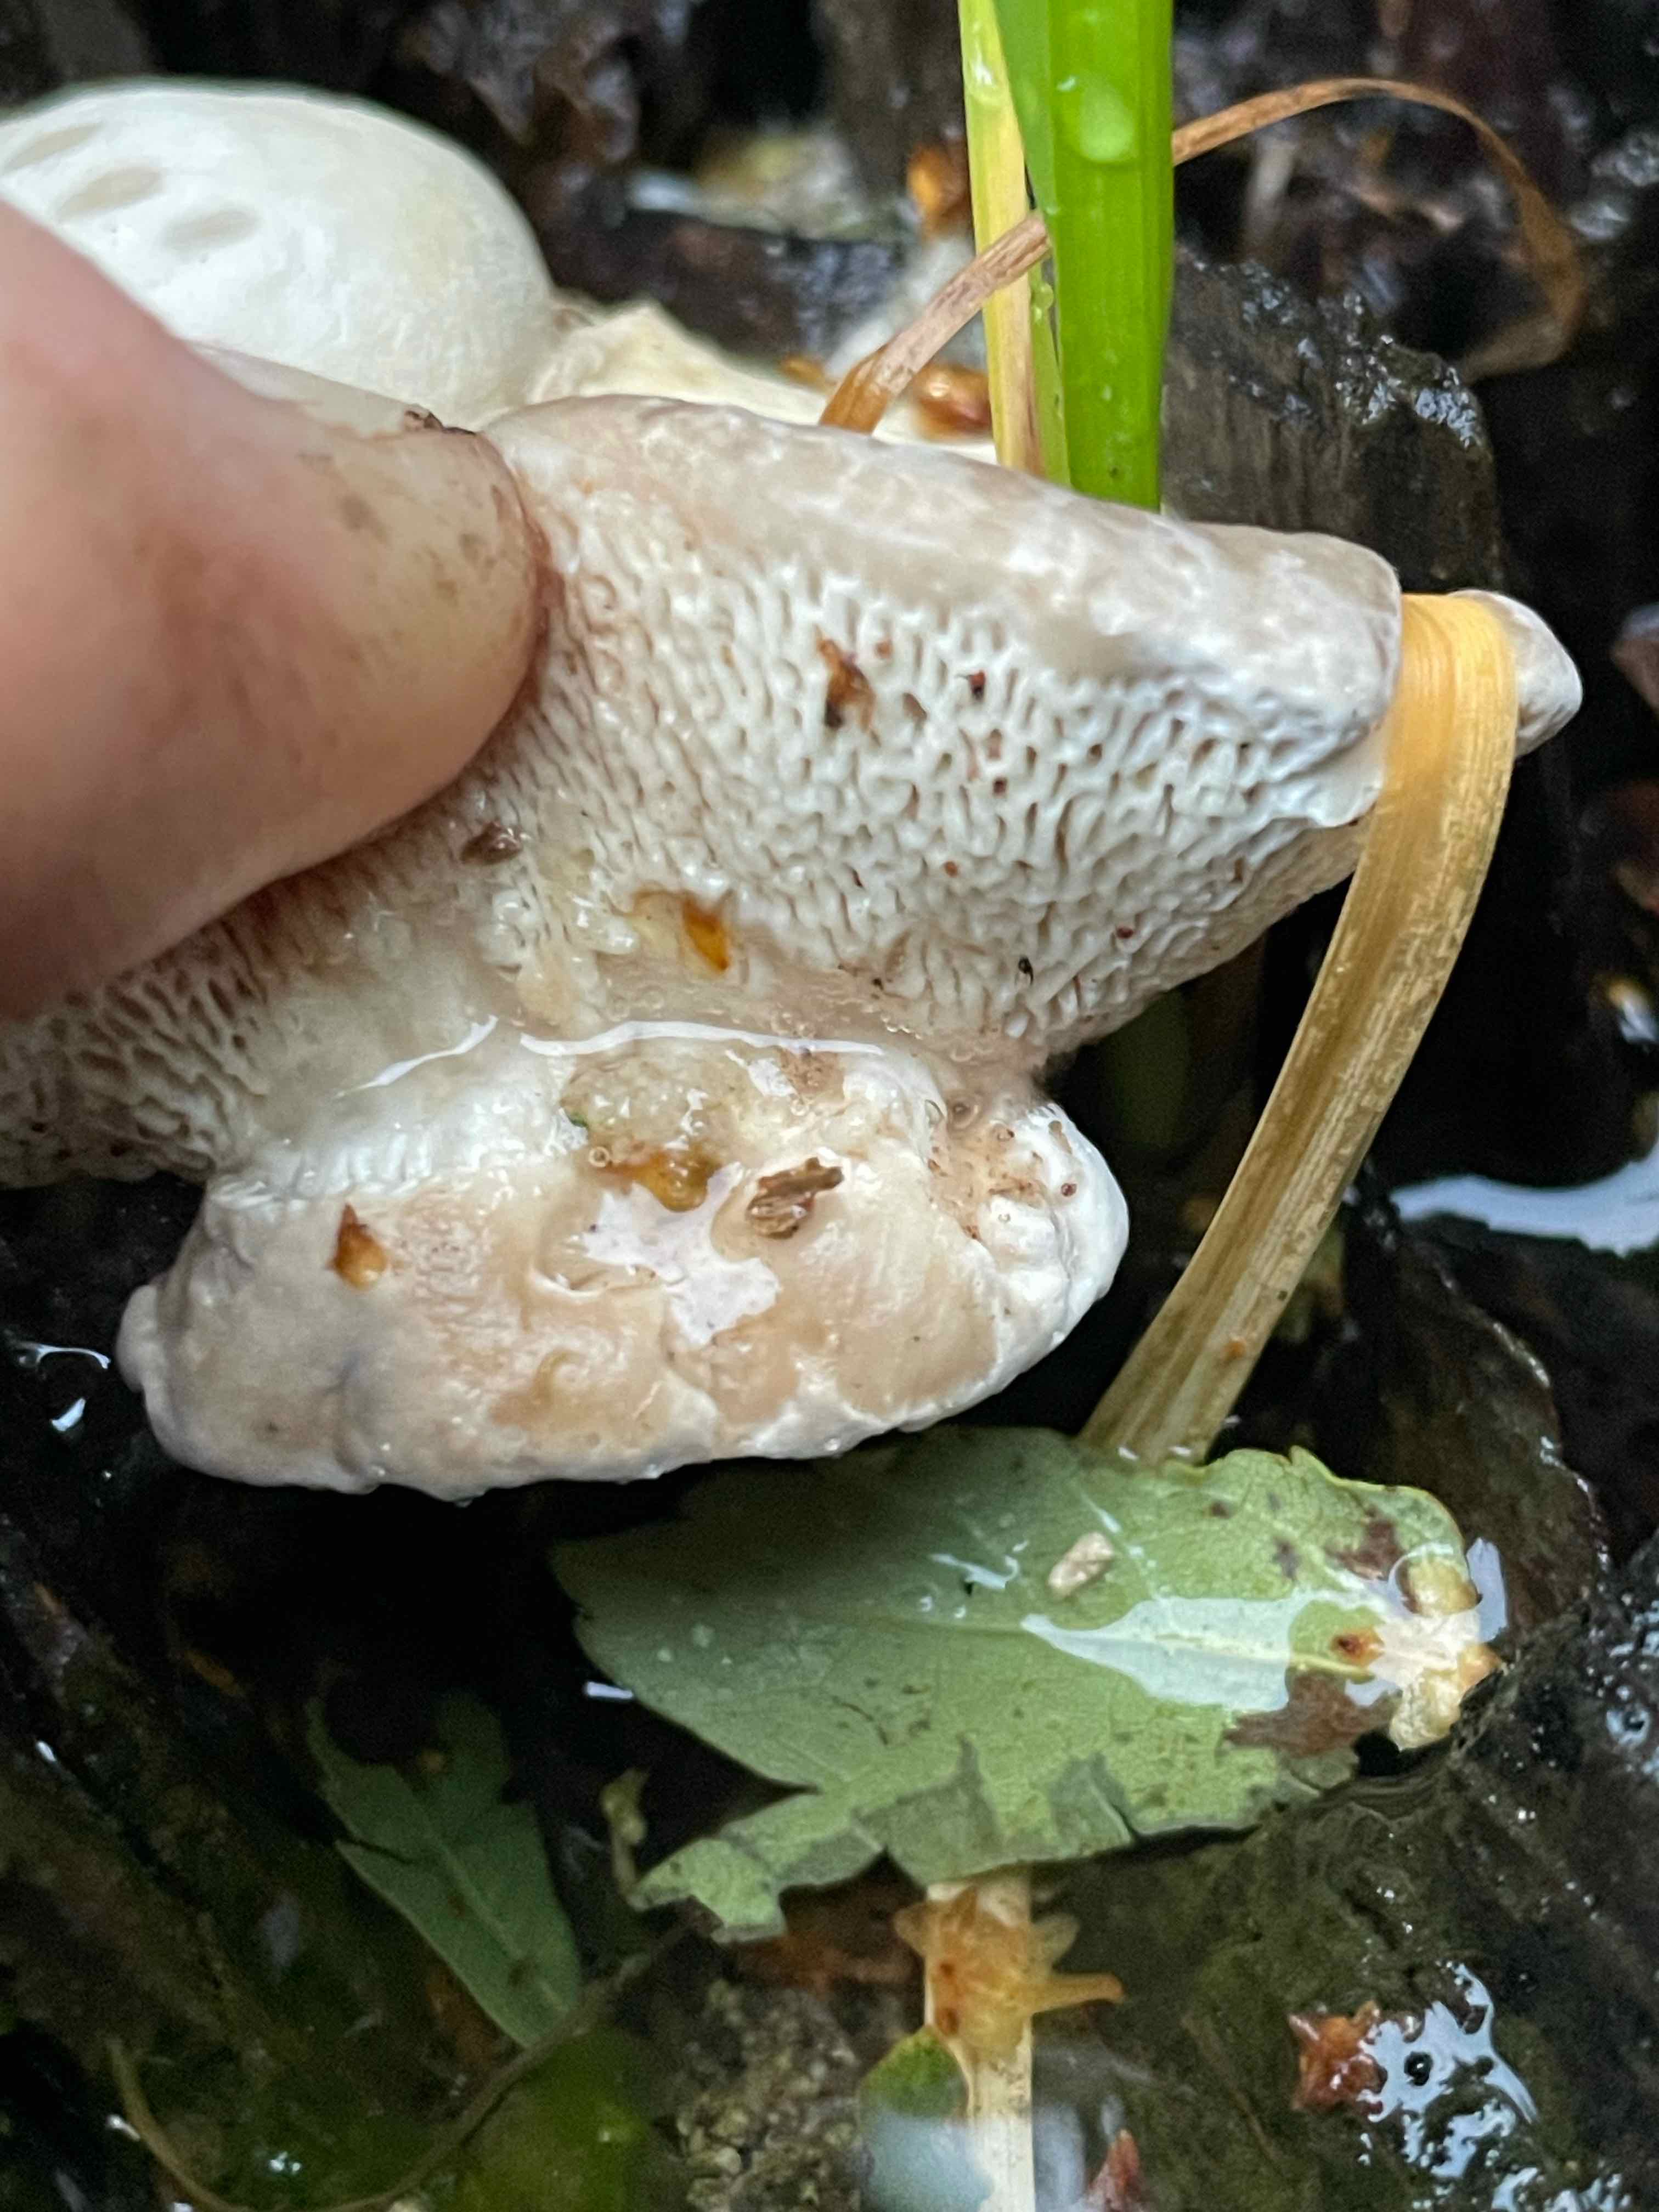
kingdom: Fungi
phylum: Basidiomycota
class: Agaricomycetes
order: Polyporales
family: Polyporaceae
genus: Trametes
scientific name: Trametes gibbosa
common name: puklet læderporesvamp
